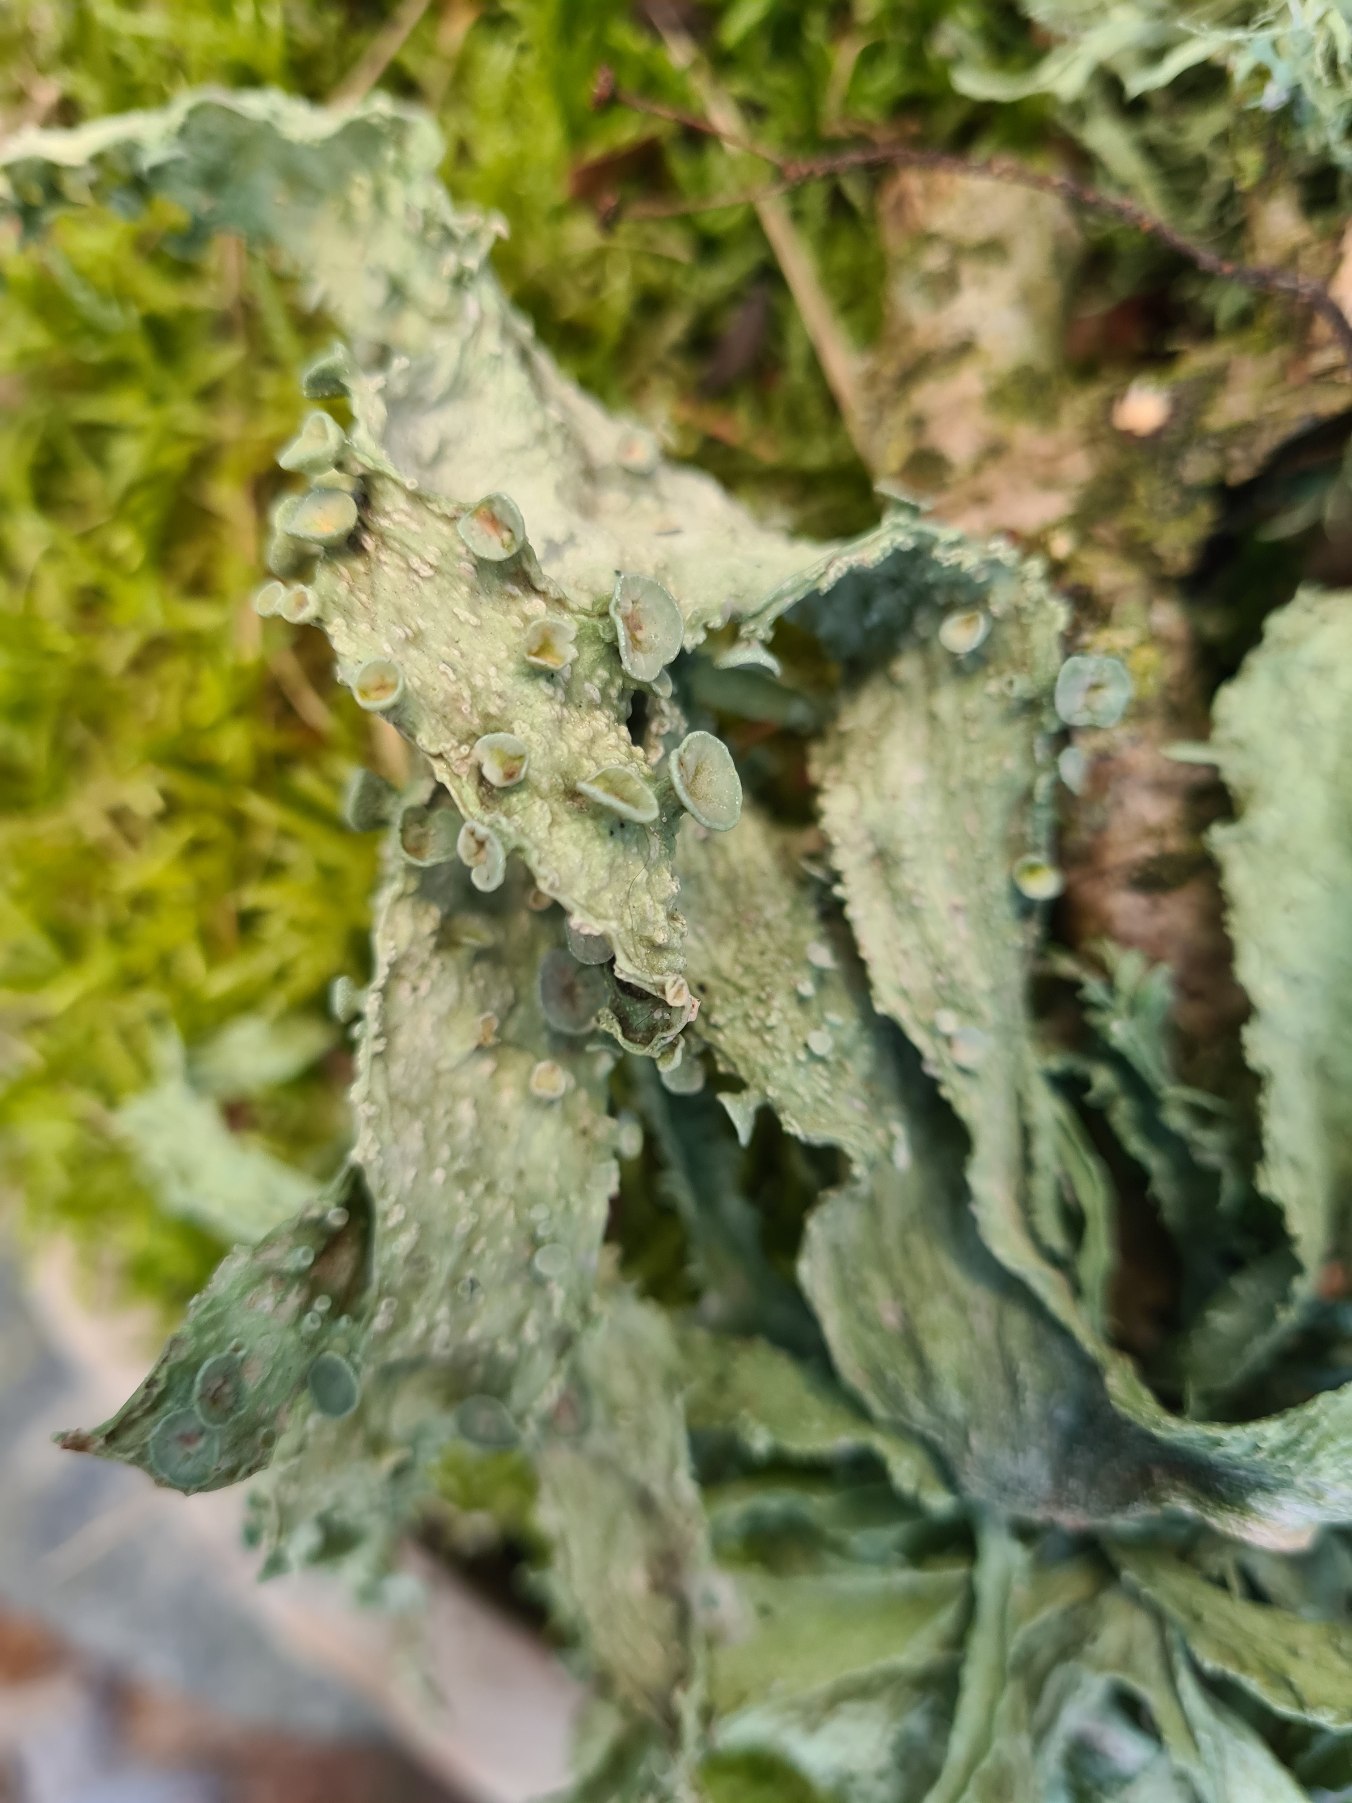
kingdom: Fungi
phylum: Ascomycota
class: Lecanoromycetes
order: Lecanorales
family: Ramalinaceae
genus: Ramalina
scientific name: Ramalina fraxinea
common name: Stor grenlav
